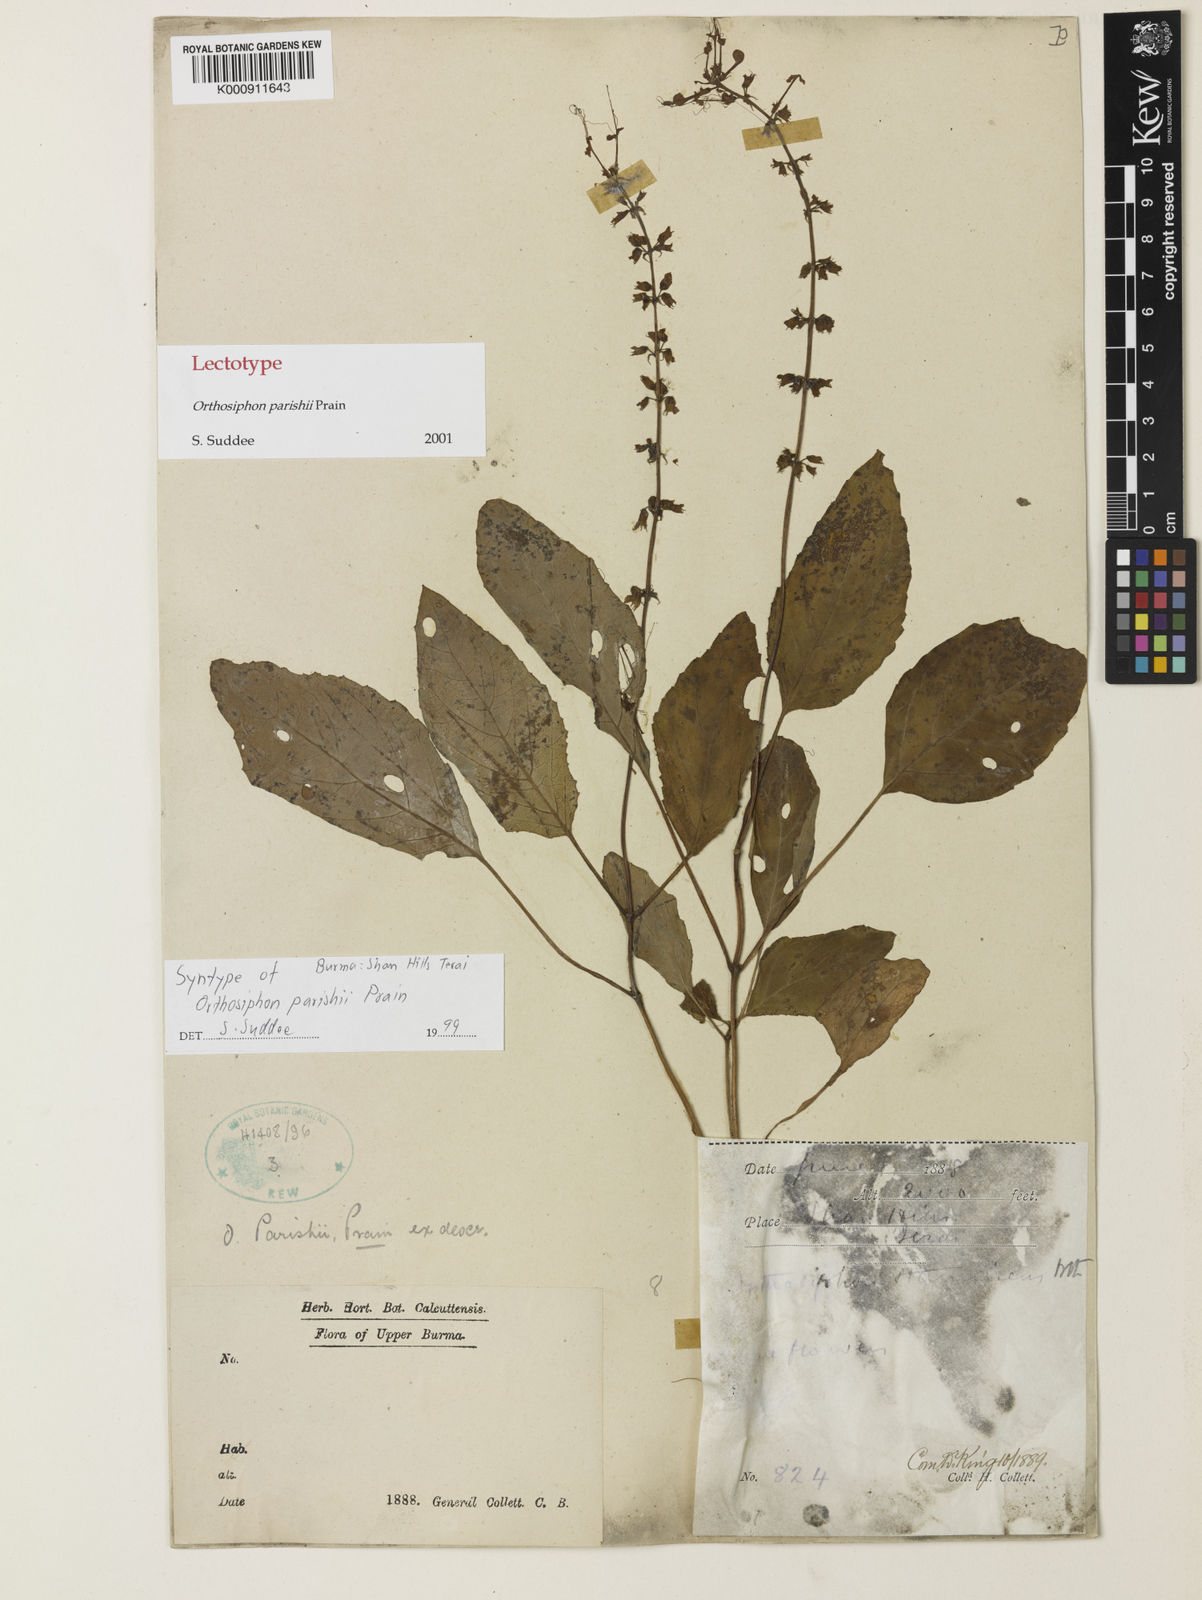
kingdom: Plantae
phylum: Tracheophyta
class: Magnoliopsida
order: Lamiales
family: Lamiaceae
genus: Orthosiphon
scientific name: Orthosiphon parishii
